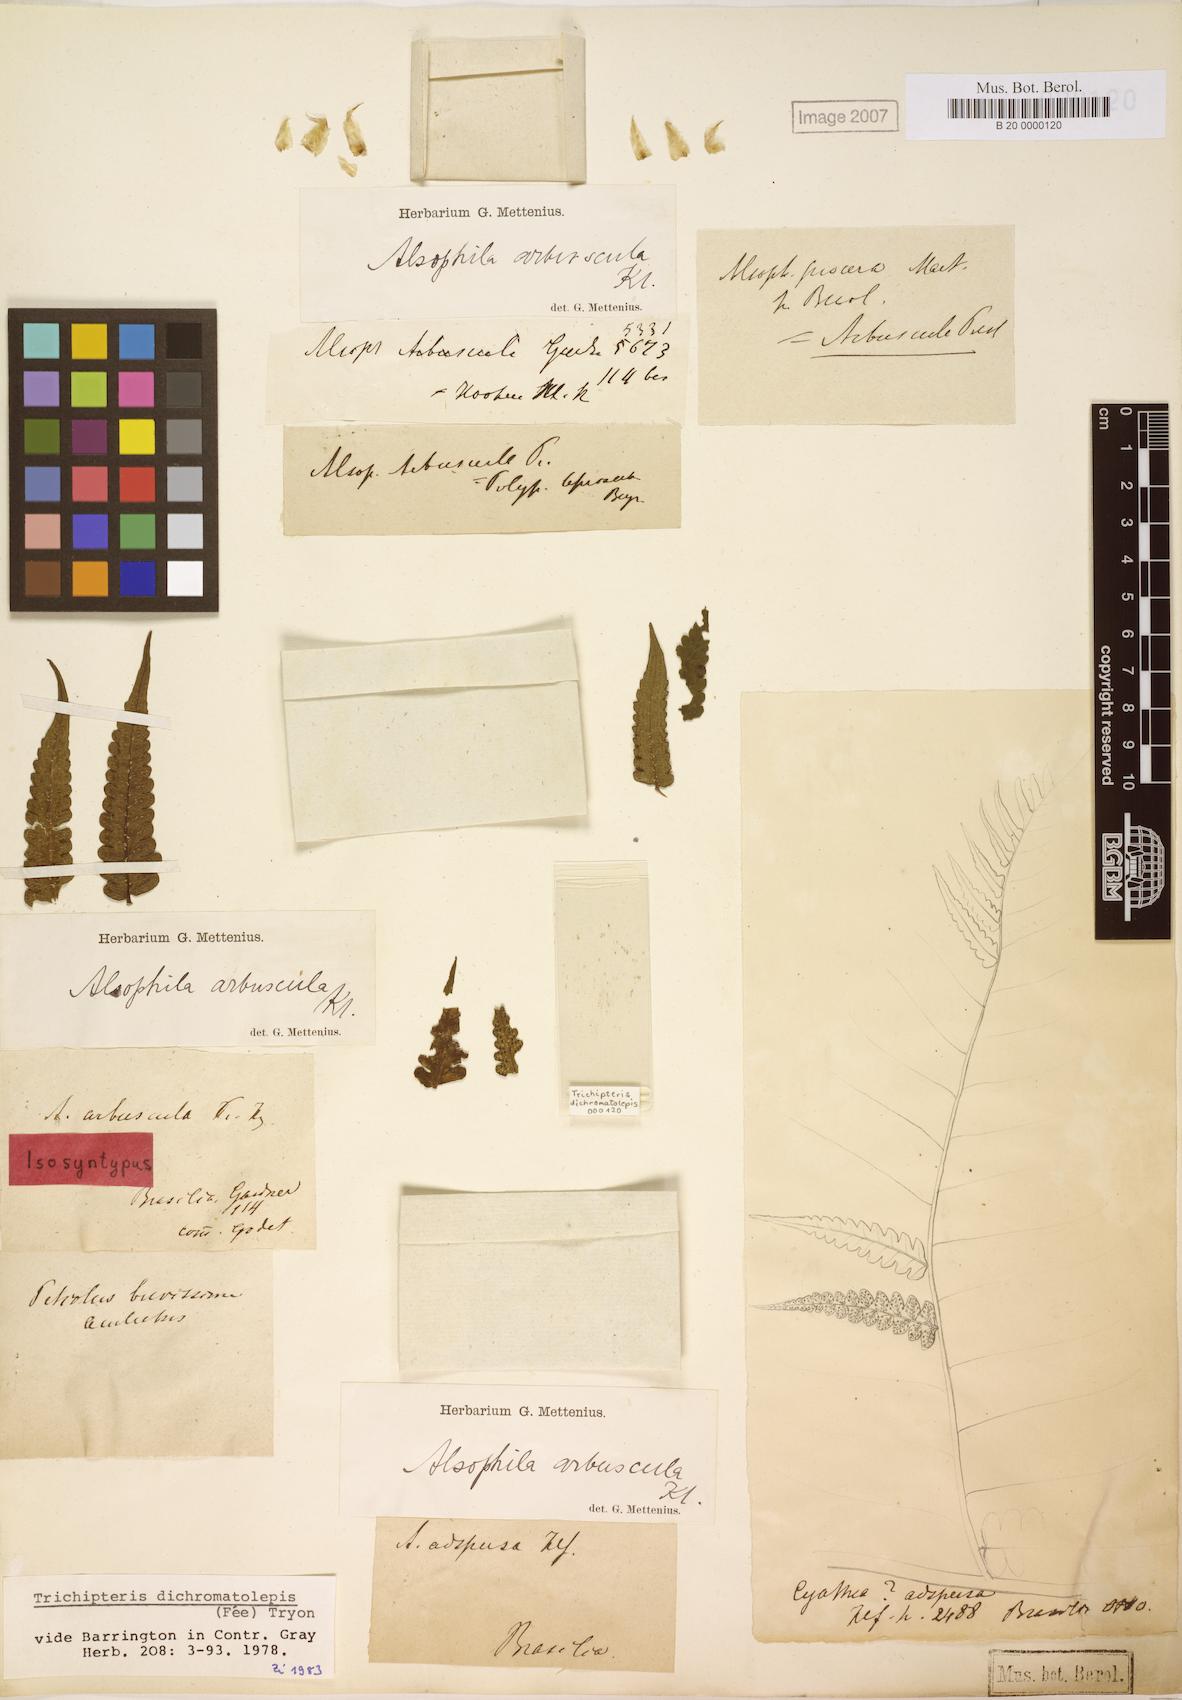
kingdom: Plantae
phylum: Tracheophyta
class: Polypodiopsida
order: Cyatheales
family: Cyatheaceae
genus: Cyathea
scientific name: Cyathea dichromatolepis
